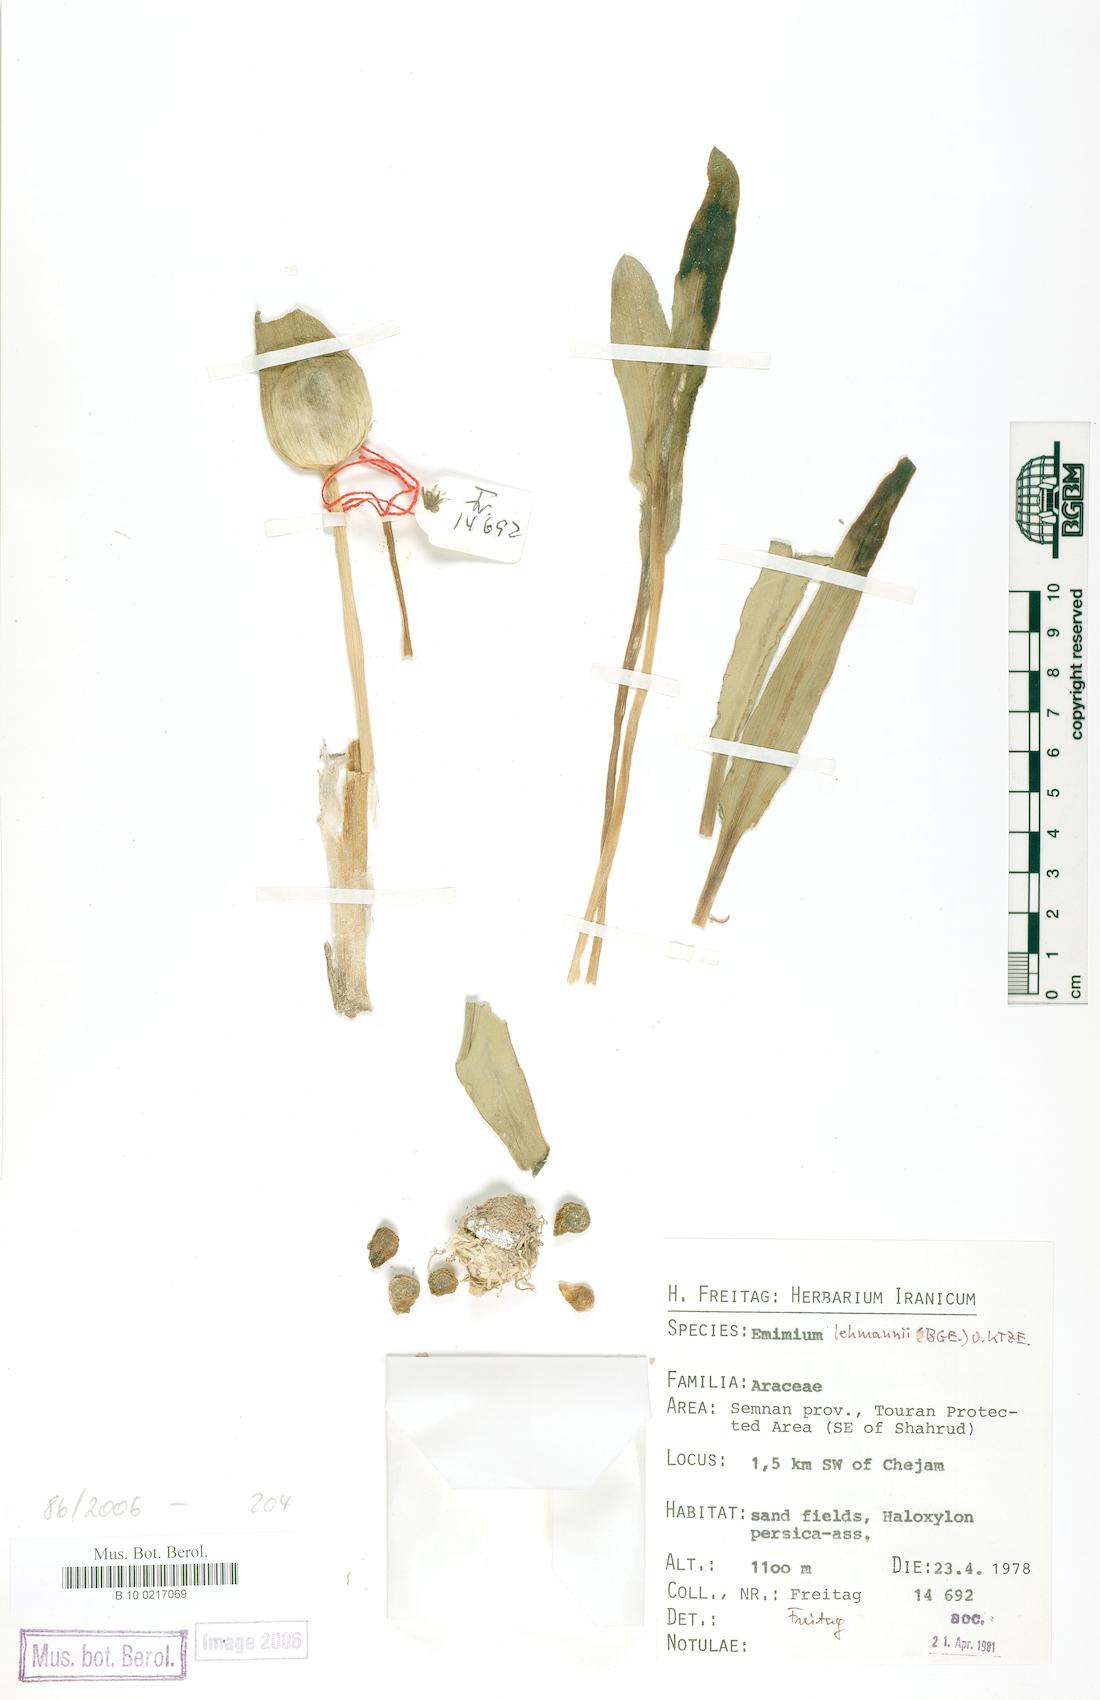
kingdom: Plantae
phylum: Tracheophyta
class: Liliopsida
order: Alismatales
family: Araceae
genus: Eminium
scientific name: Eminium lehmannii
